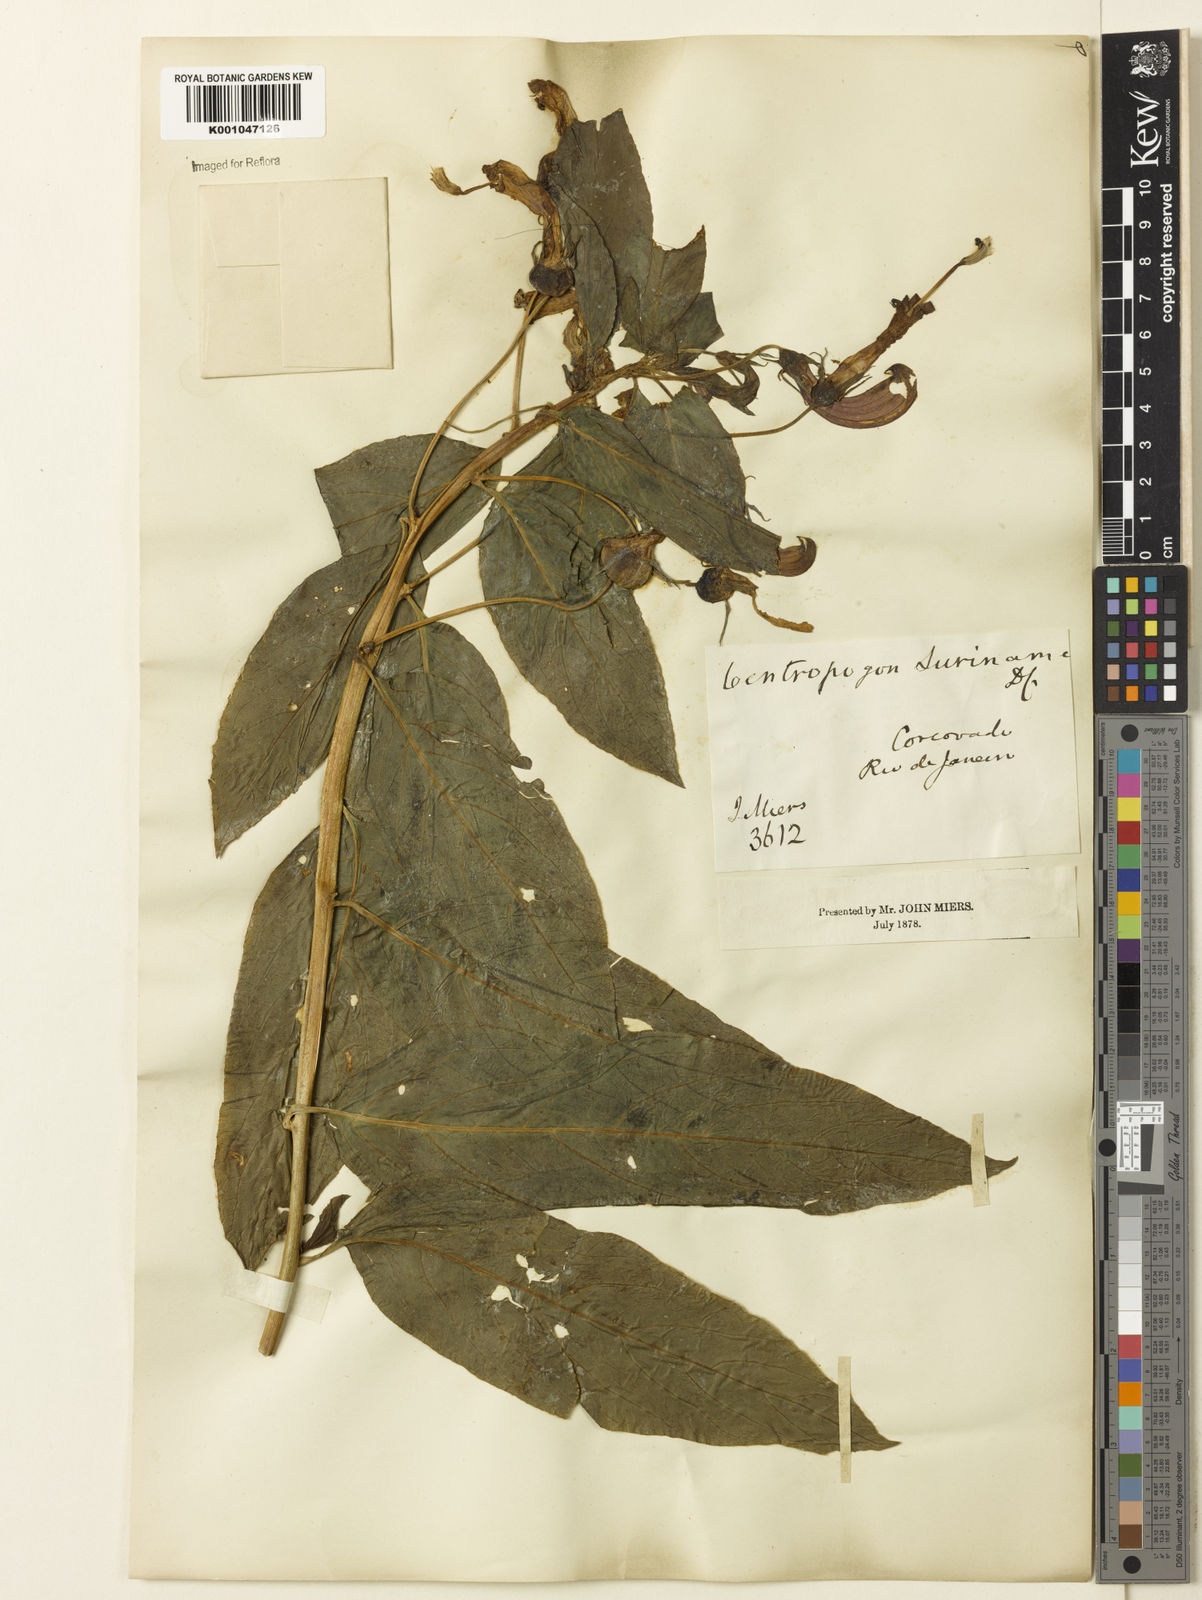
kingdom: Plantae
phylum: Tracheophyta
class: Magnoliopsida
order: Asterales
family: Campanulaceae
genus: Centropogon
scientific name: Centropogon cornutus
